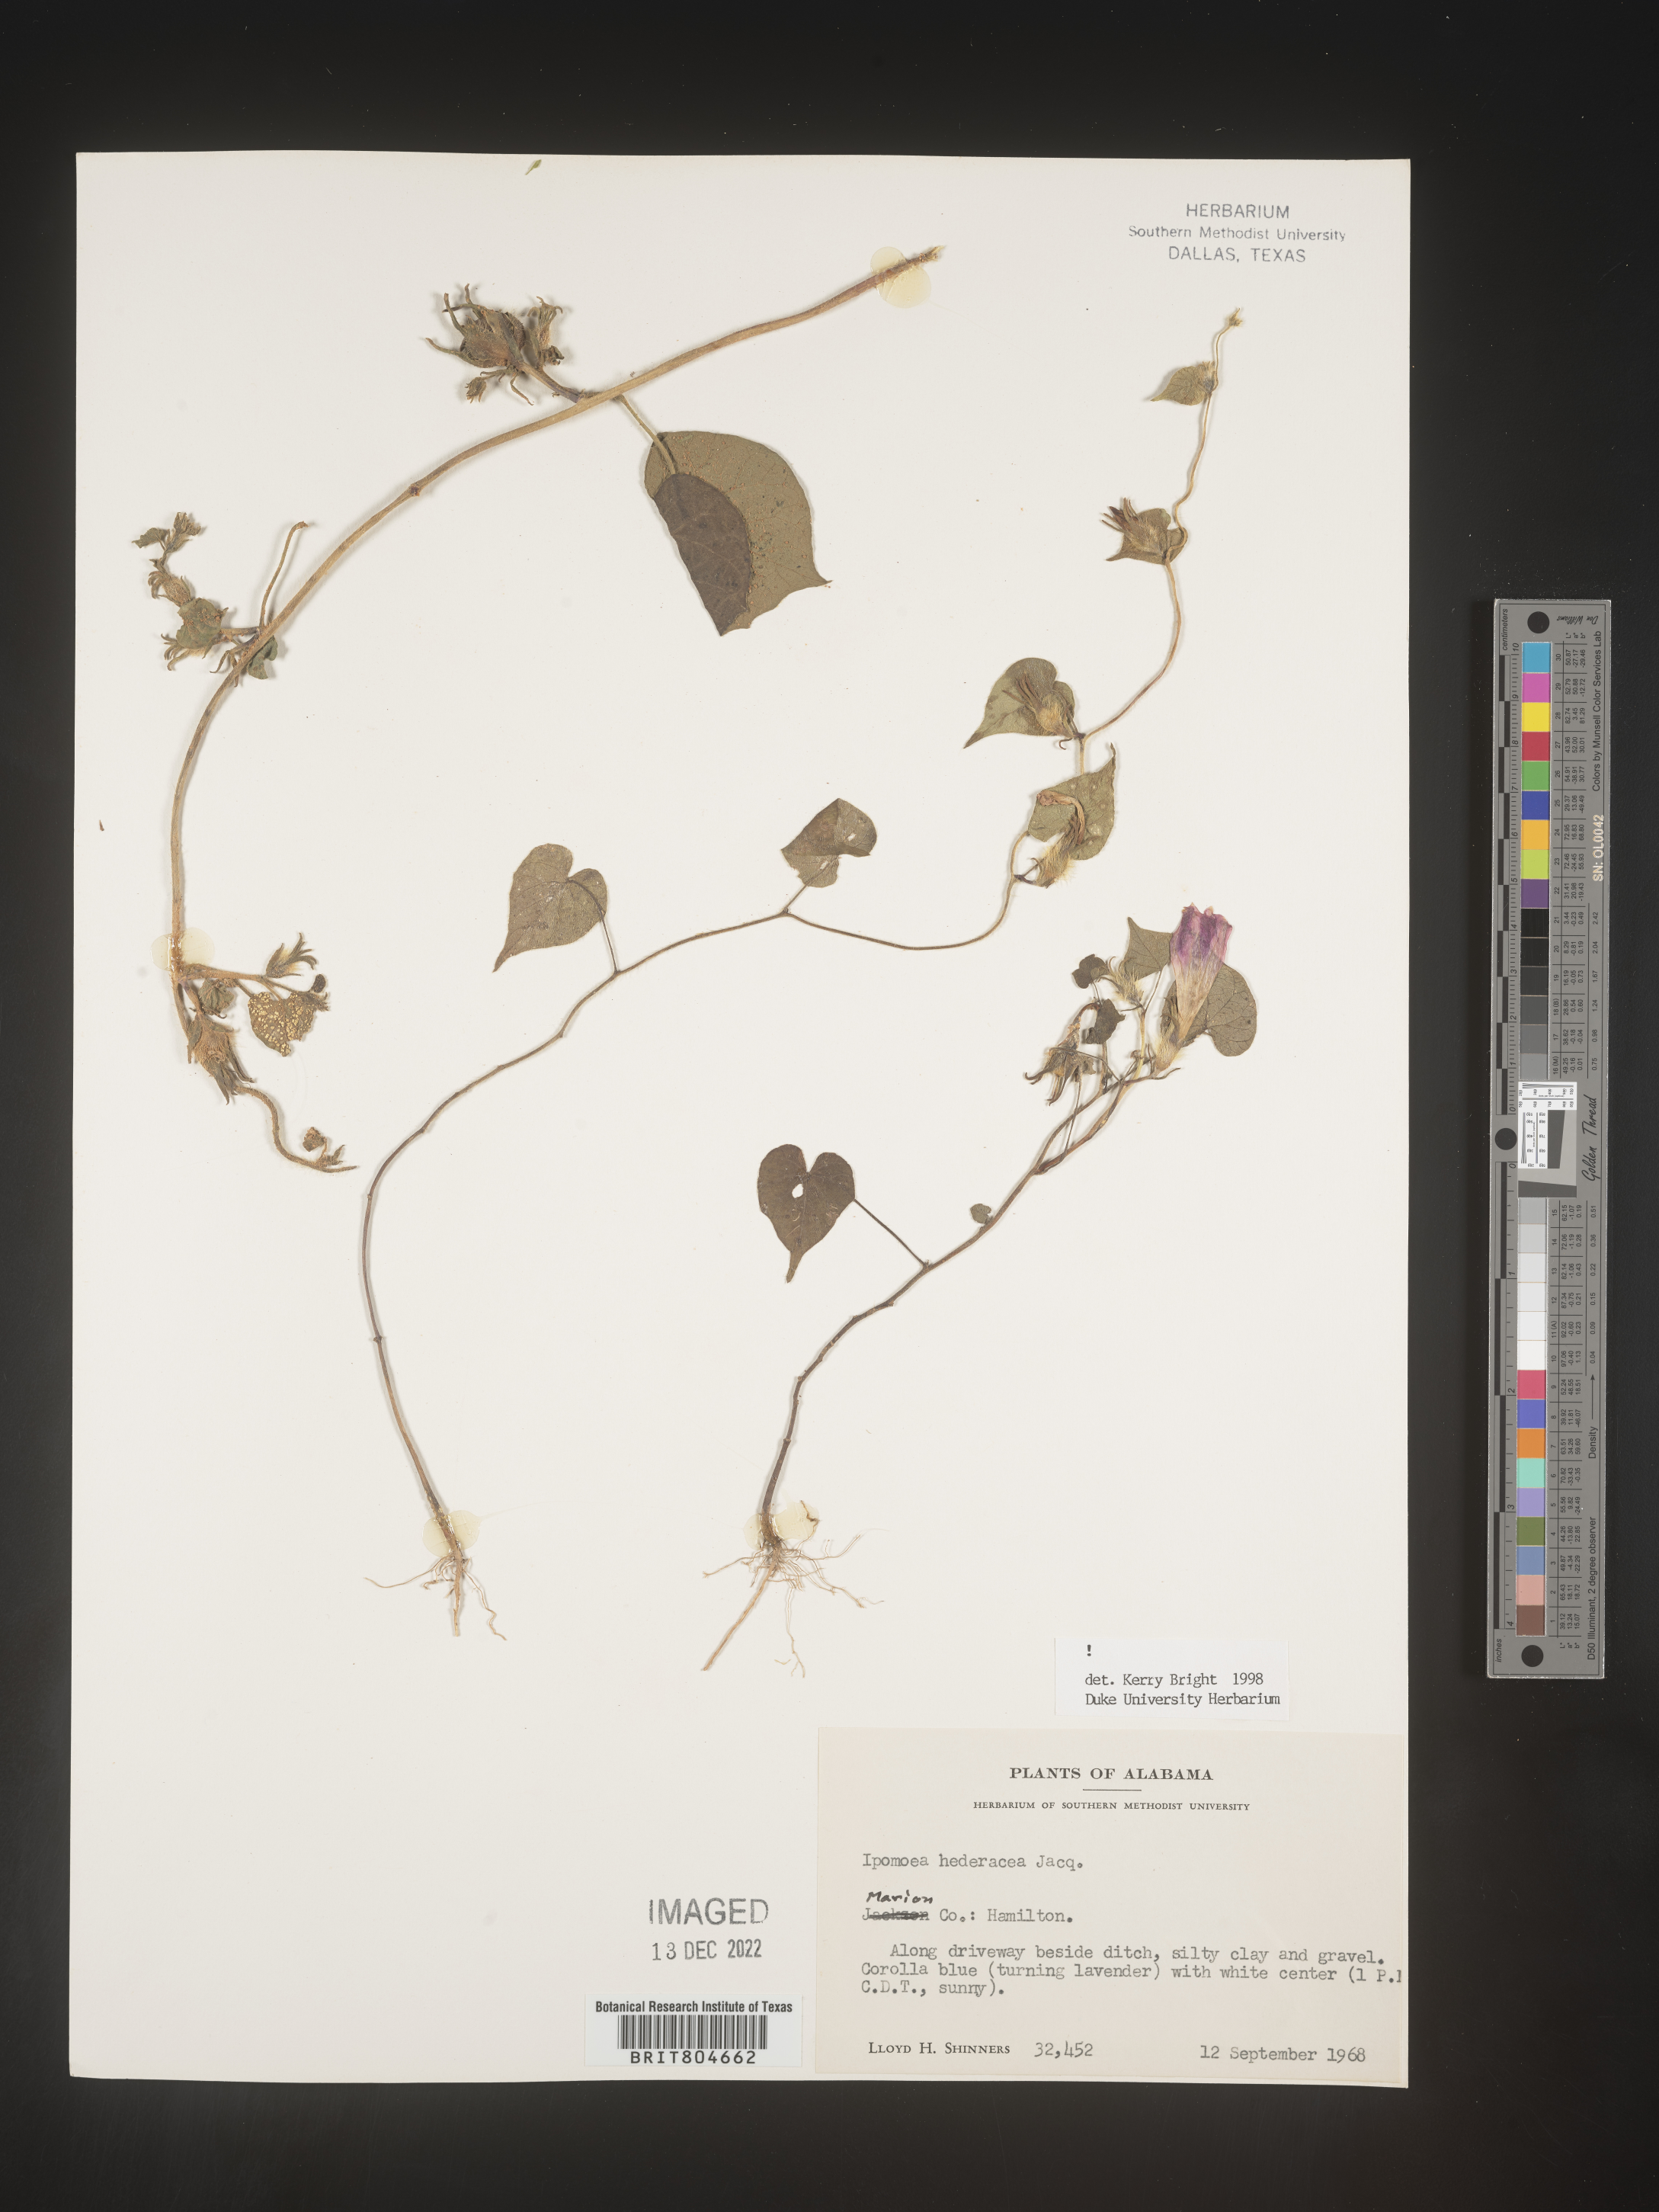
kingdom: Plantae
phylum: Tracheophyta
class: Magnoliopsida
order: Solanales
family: Convolvulaceae
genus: Ipomoea
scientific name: Ipomoea hederacea
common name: Ivy-leaved morning-glory
